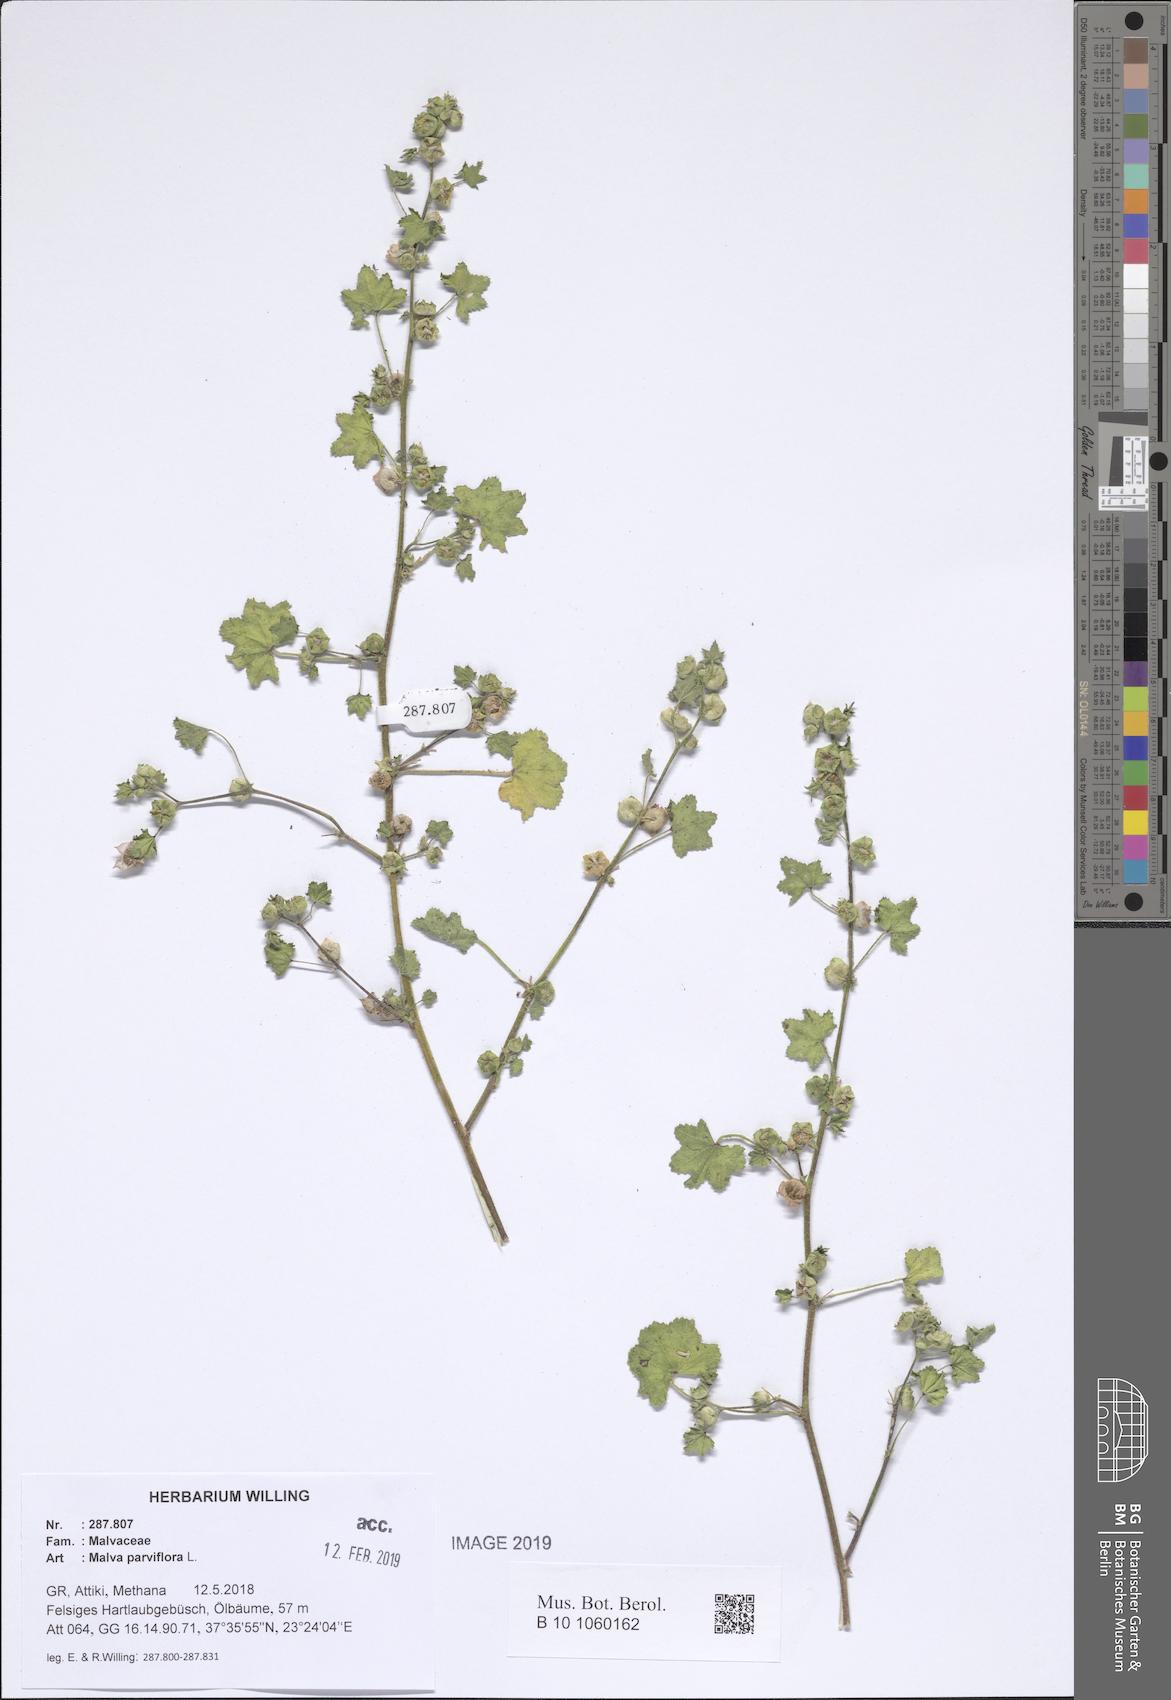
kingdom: Plantae
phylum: Tracheophyta
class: Magnoliopsida
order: Malvales
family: Malvaceae
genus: Malva
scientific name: Malva parviflora
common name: Least mallow
